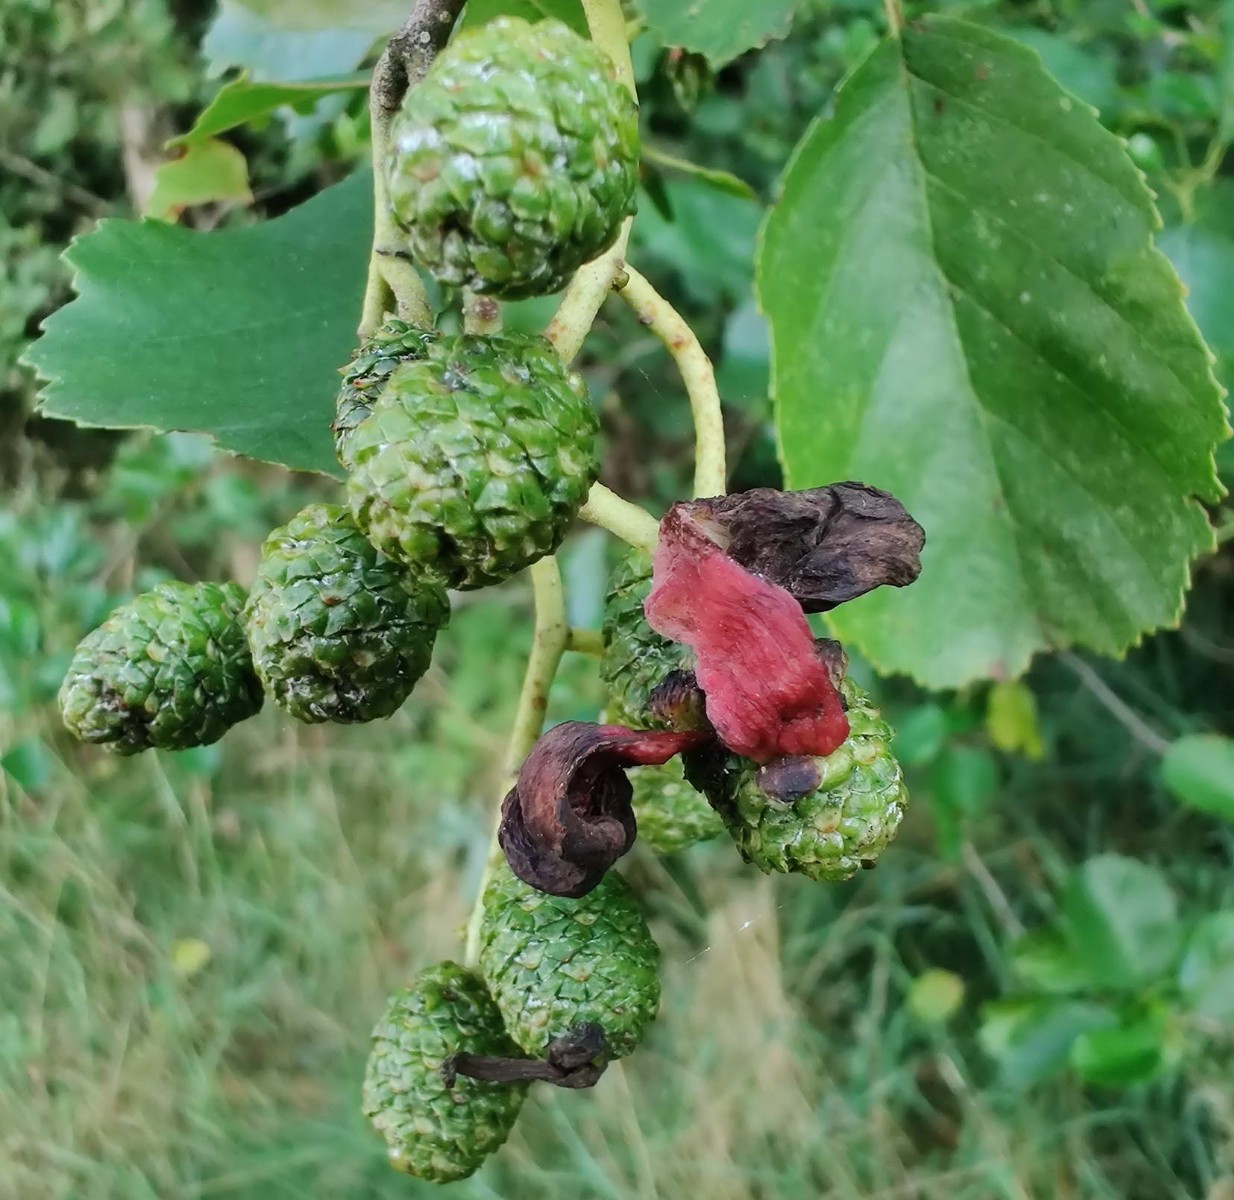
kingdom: Fungi
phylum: Ascomycota
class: Taphrinomycetes
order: Taphrinales
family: Taphrinaceae
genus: Taphrina
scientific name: Taphrina alni
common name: Alder tongue
